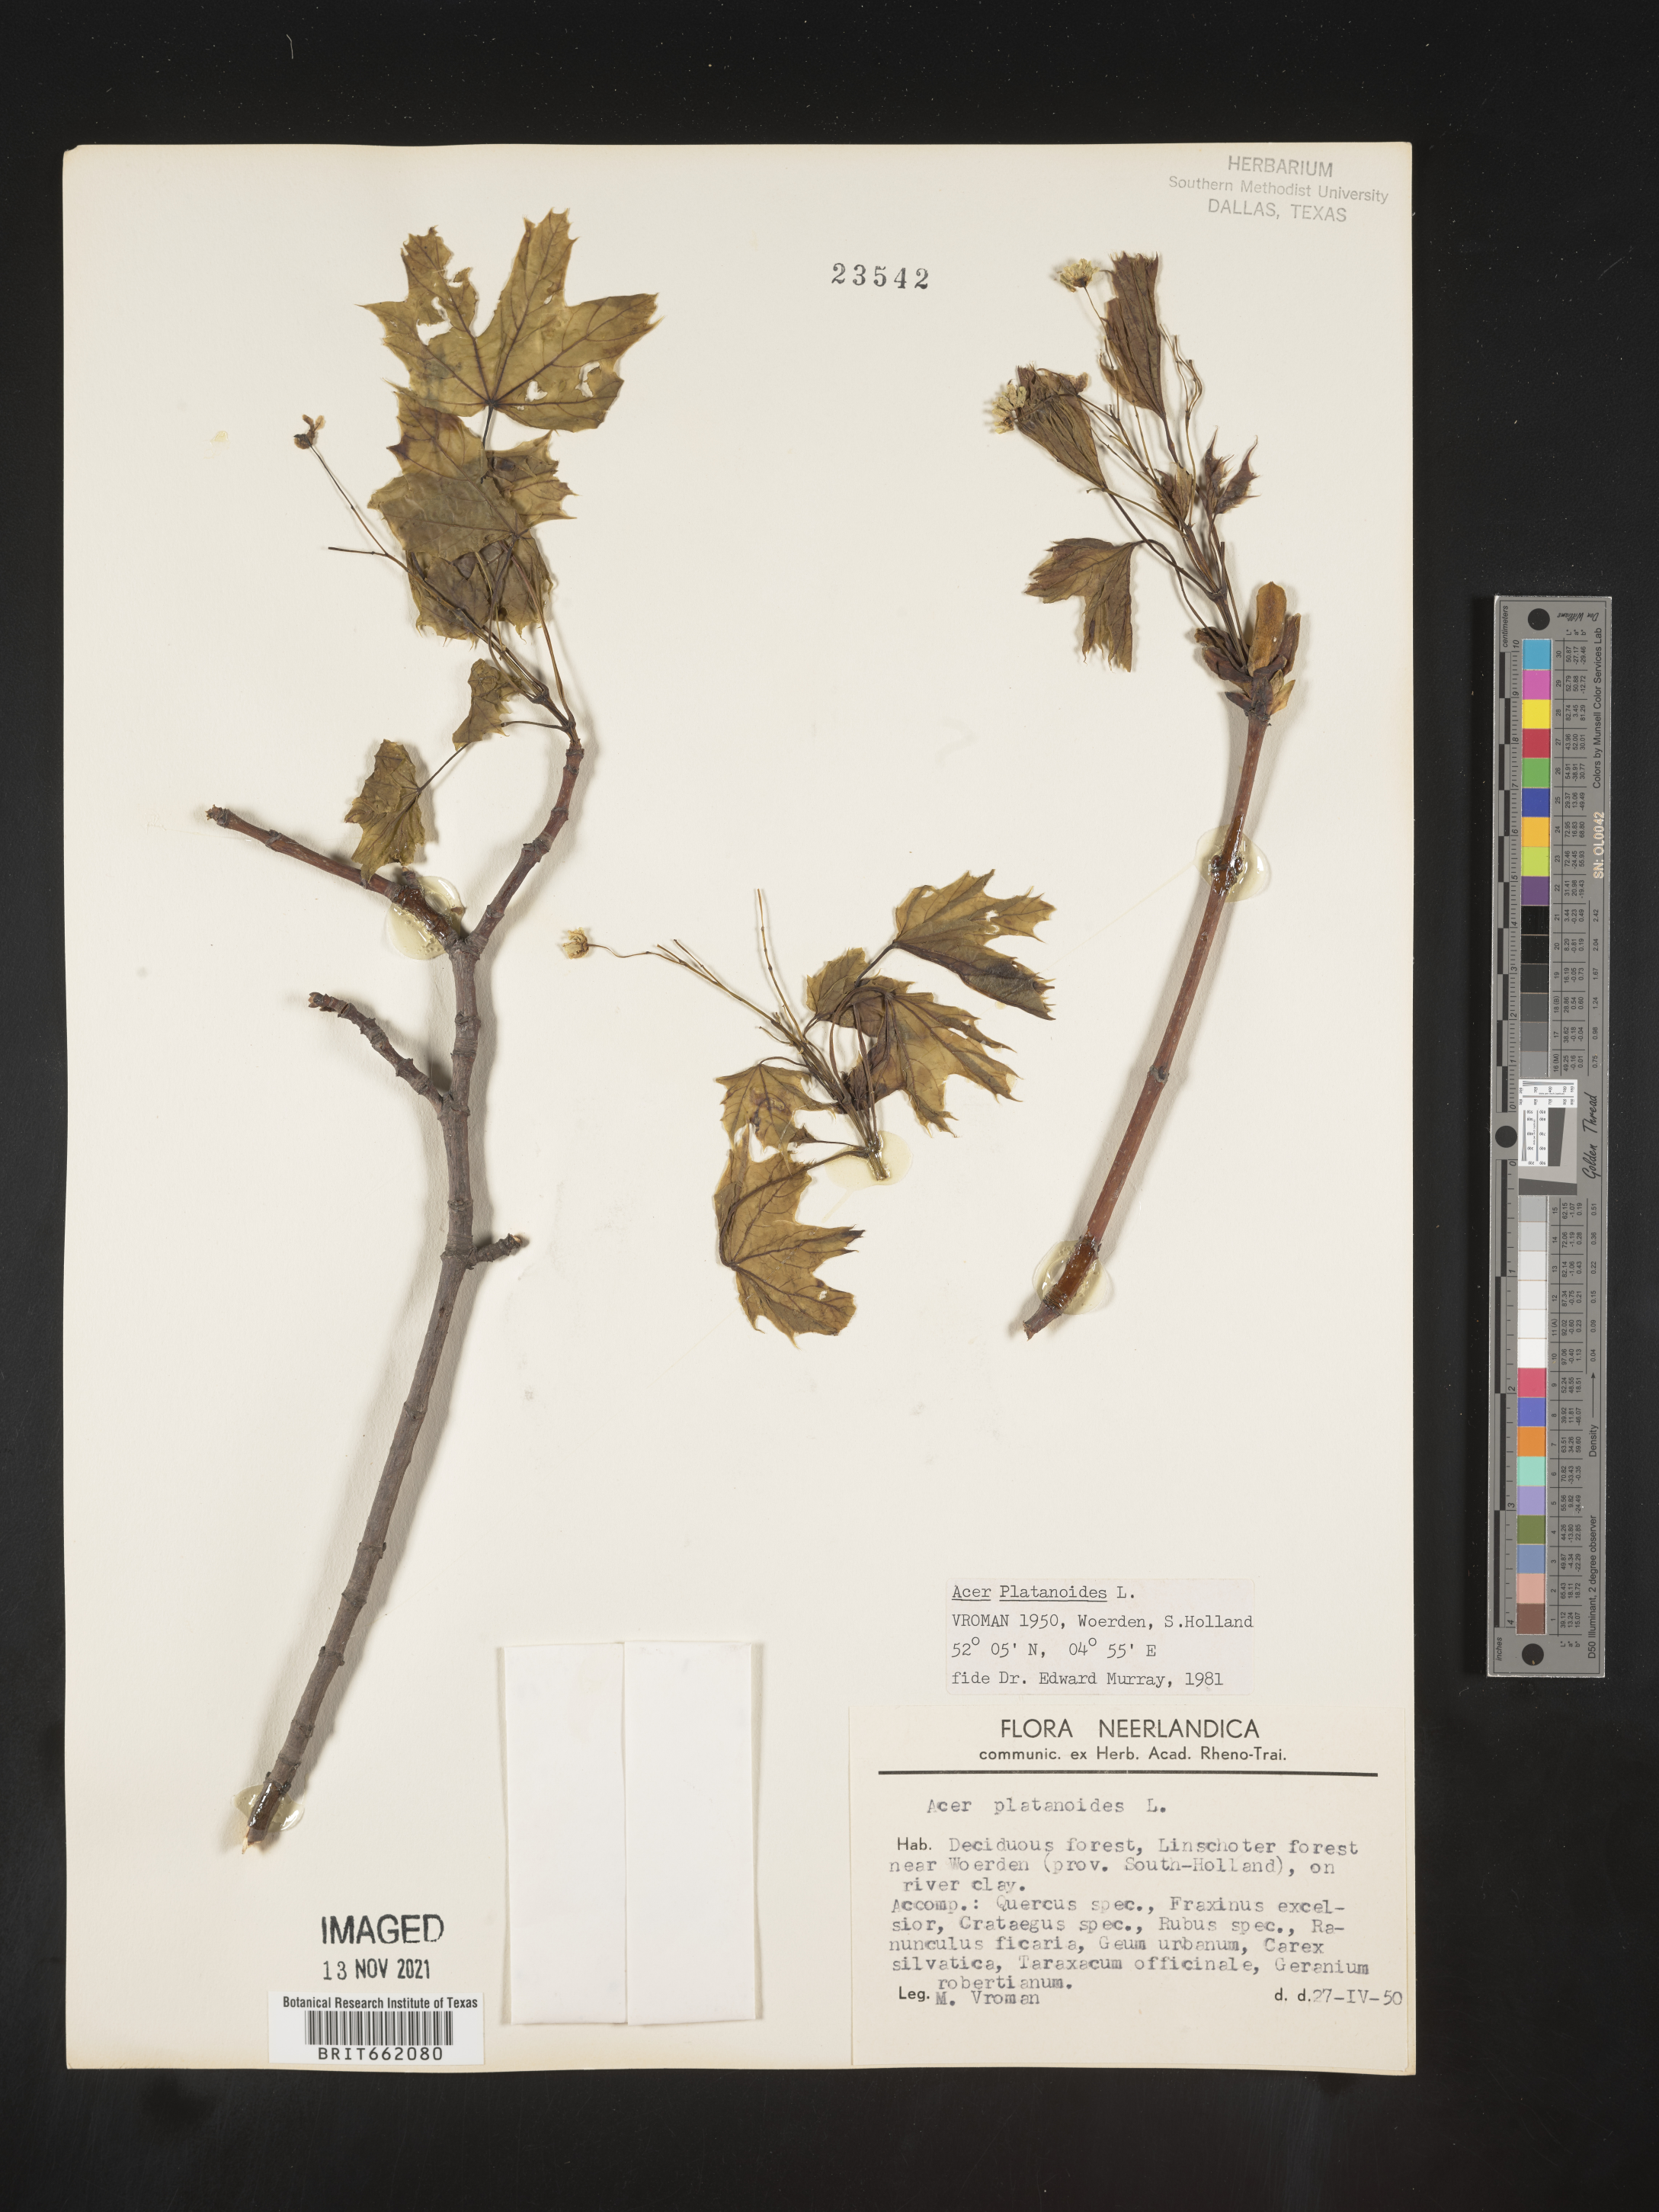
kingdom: Plantae
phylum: Tracheophyta
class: Magnoliopsida
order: Sapindales
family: Sapindaceae
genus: Acer
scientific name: Acer
